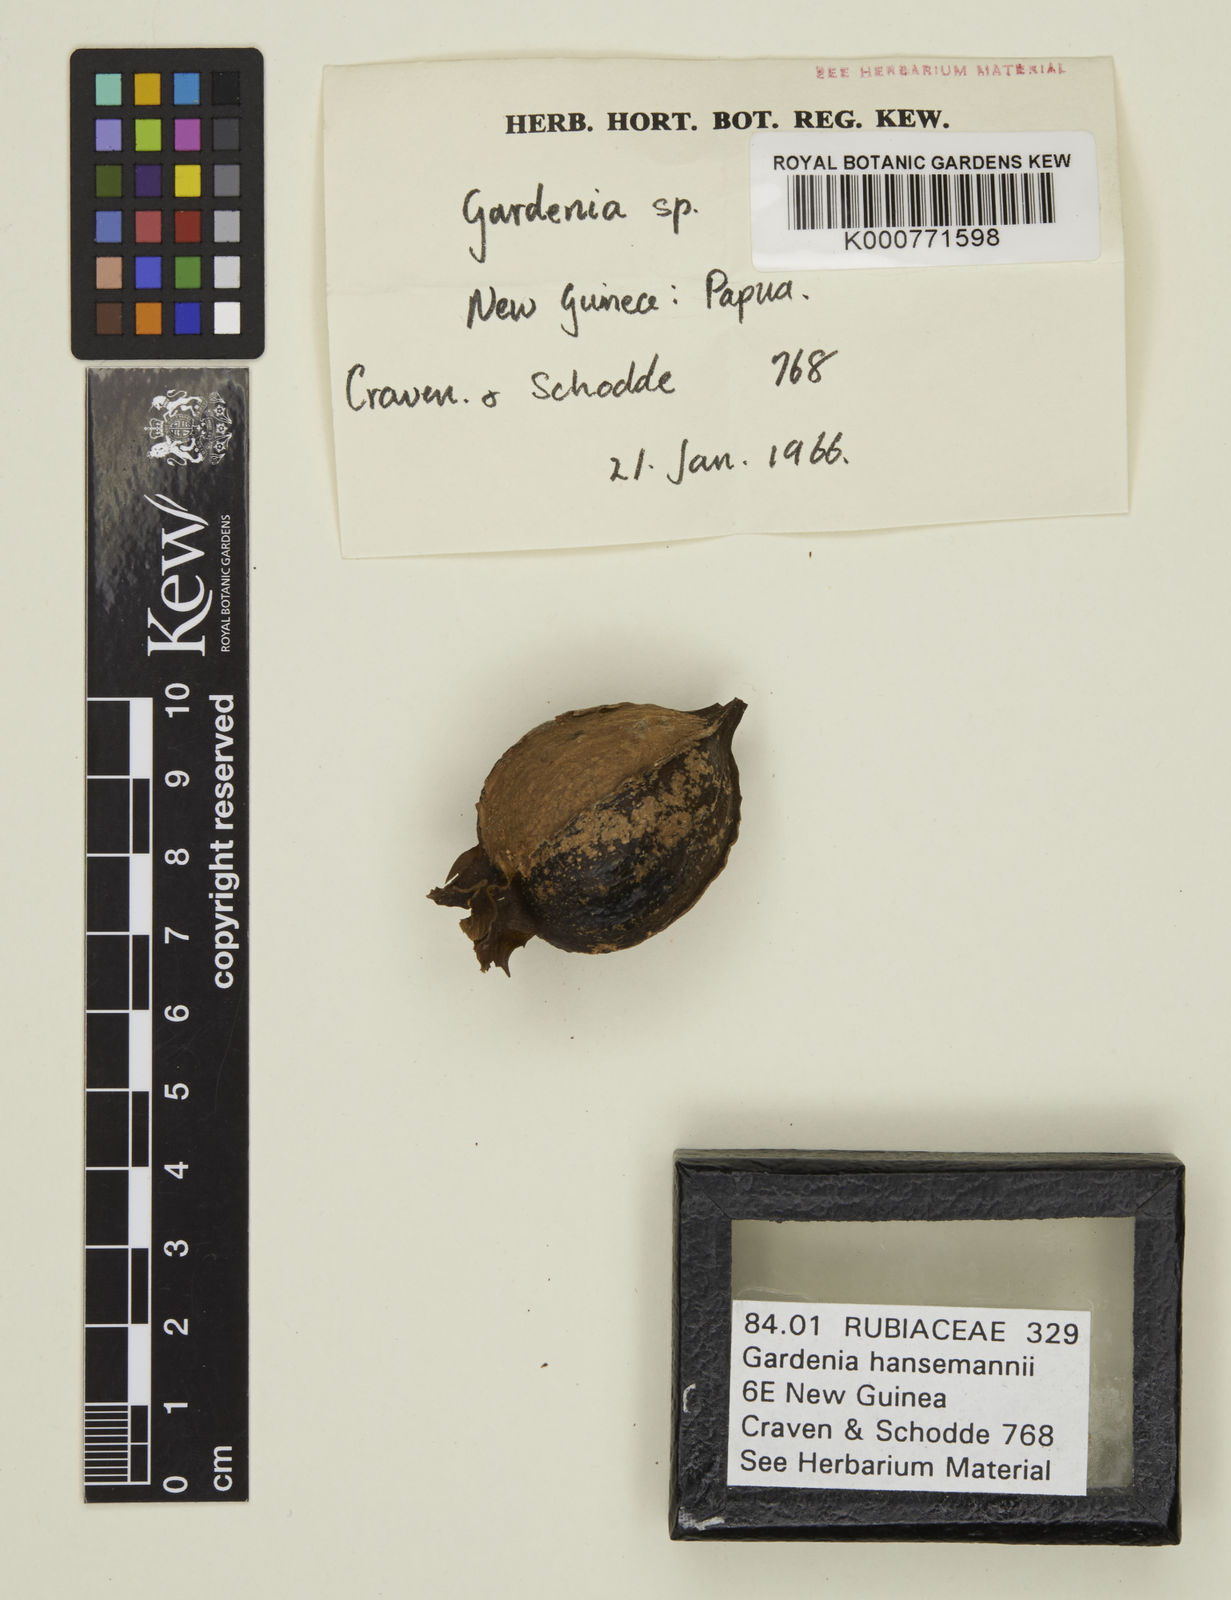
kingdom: Plantae
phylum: Tracheophyta
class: Magnoliopsida
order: Gentianales
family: Rubiaceae
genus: Gardenia
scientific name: Gardenia hansemannii
